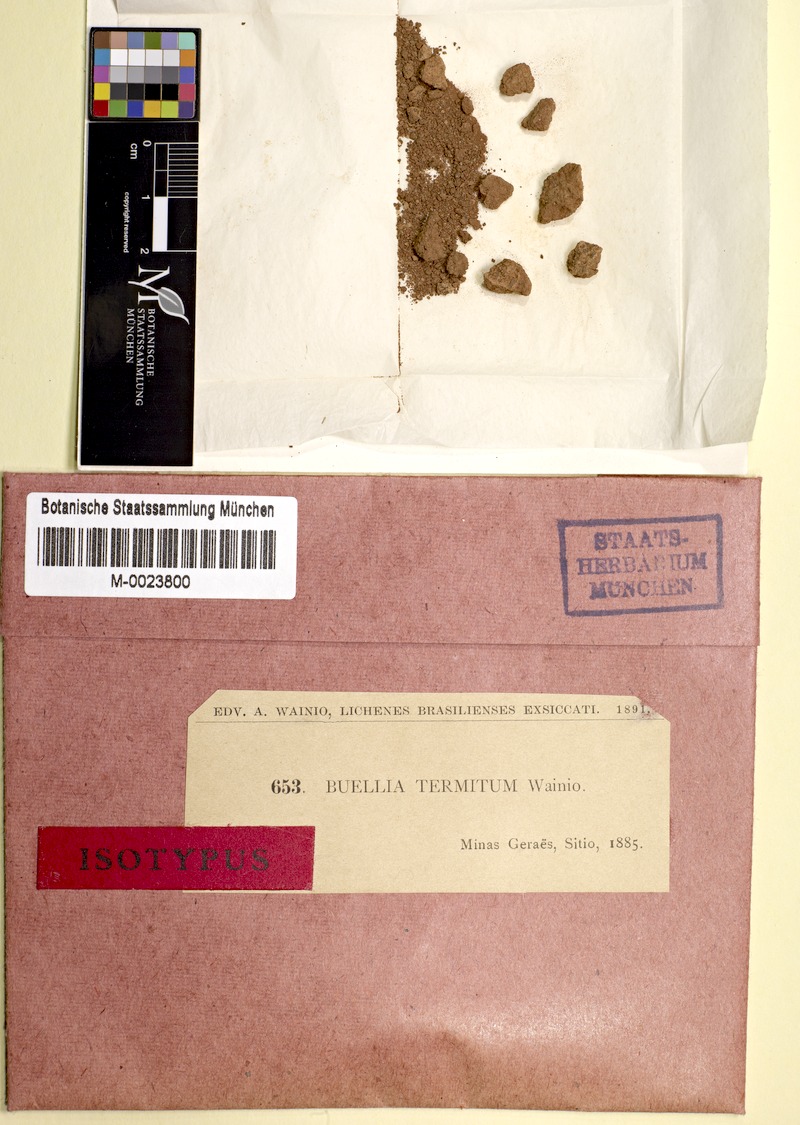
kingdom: Fungi
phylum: Ascomycota
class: Lecanoromycetes
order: Caliciales
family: Caliciaceae
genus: Buellia
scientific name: Buellia
